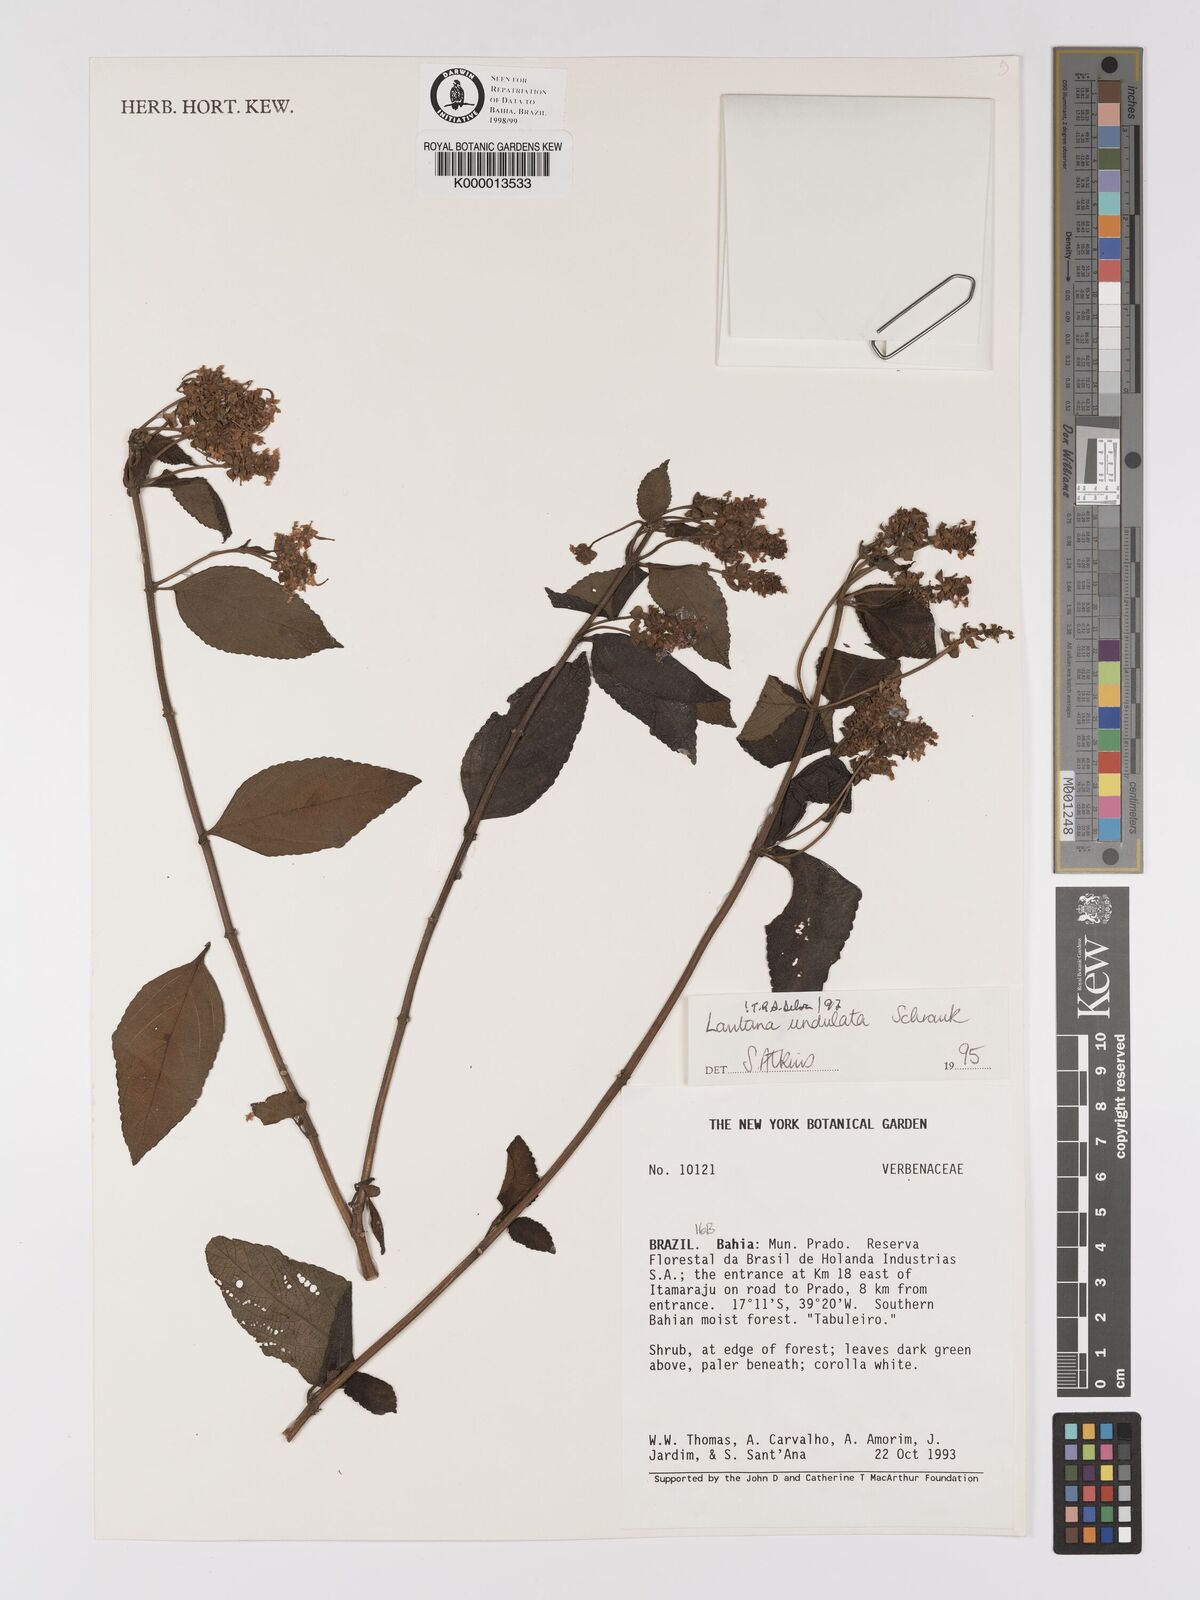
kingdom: Plantae
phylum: Tracheophyta
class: Magnoliopsida
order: Lamiales
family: Verbenaceae
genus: Lantana
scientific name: Lantana undulata
